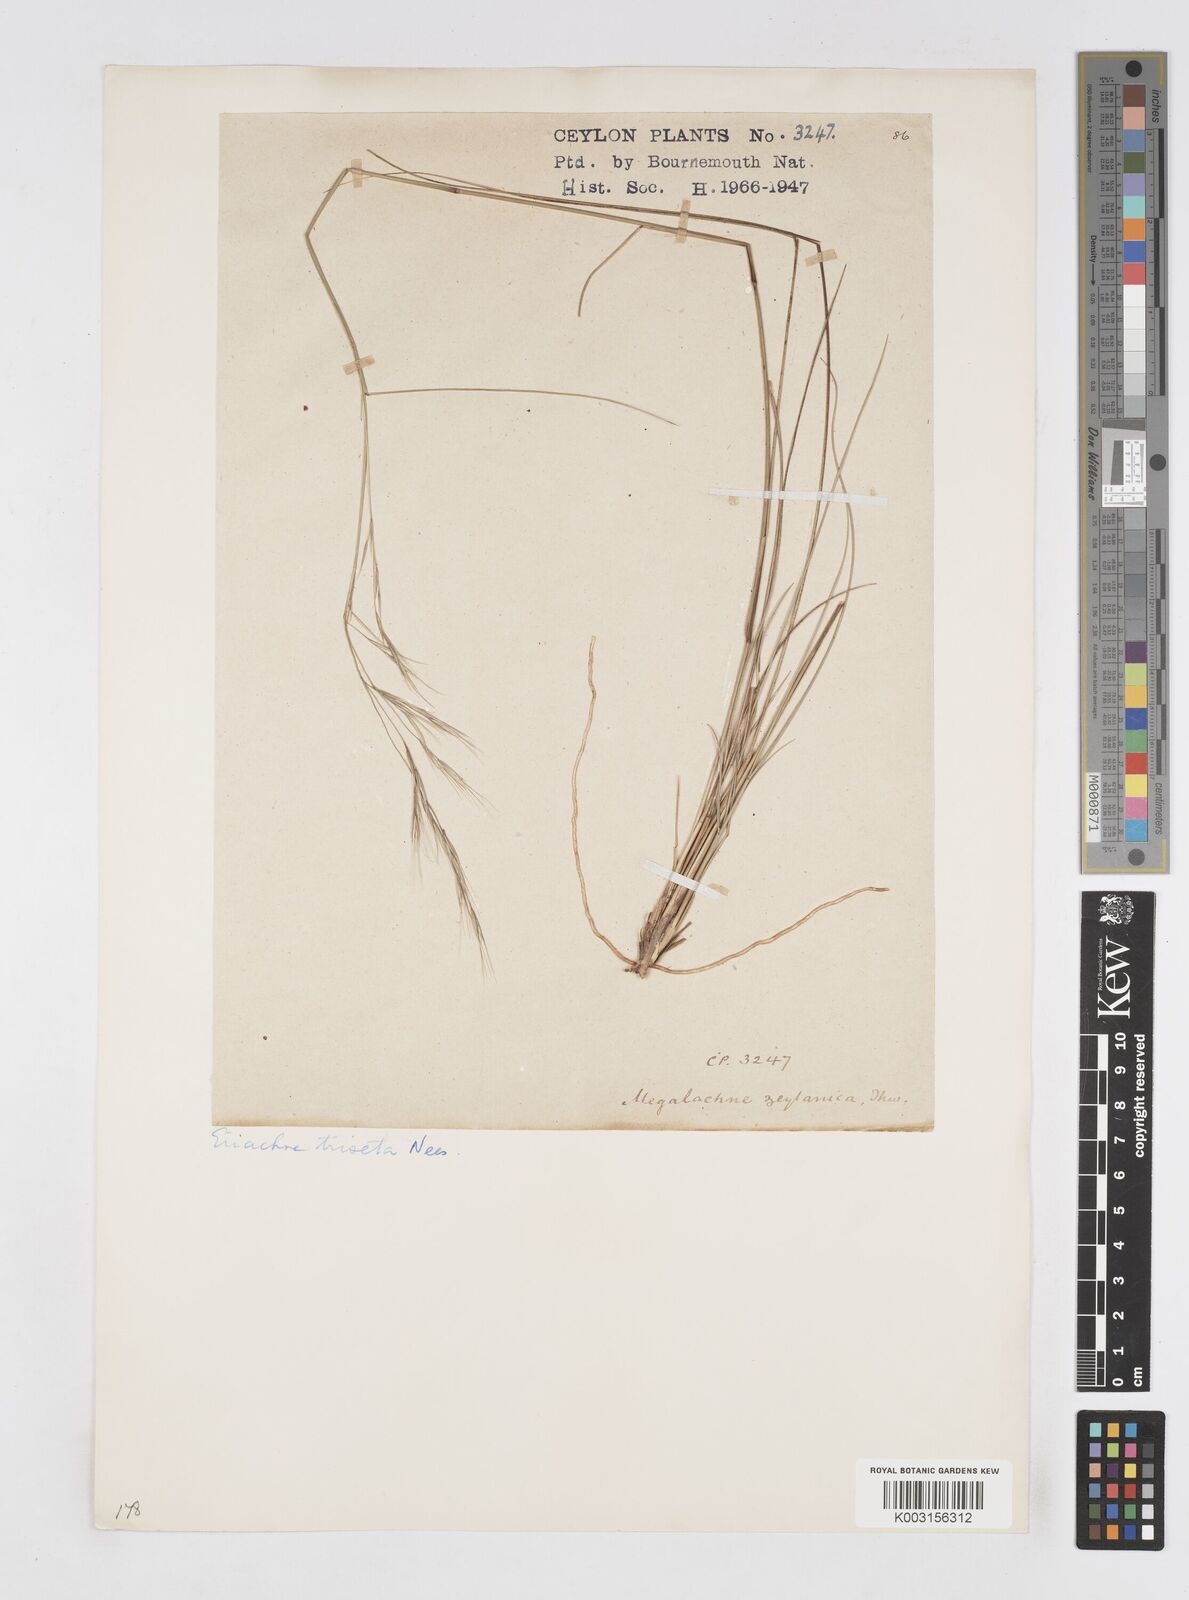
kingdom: Plantae
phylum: Tracheophyta
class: Liliopsida
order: Poales
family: Poaceae
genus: Eriachne
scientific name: Eriachne triseta
